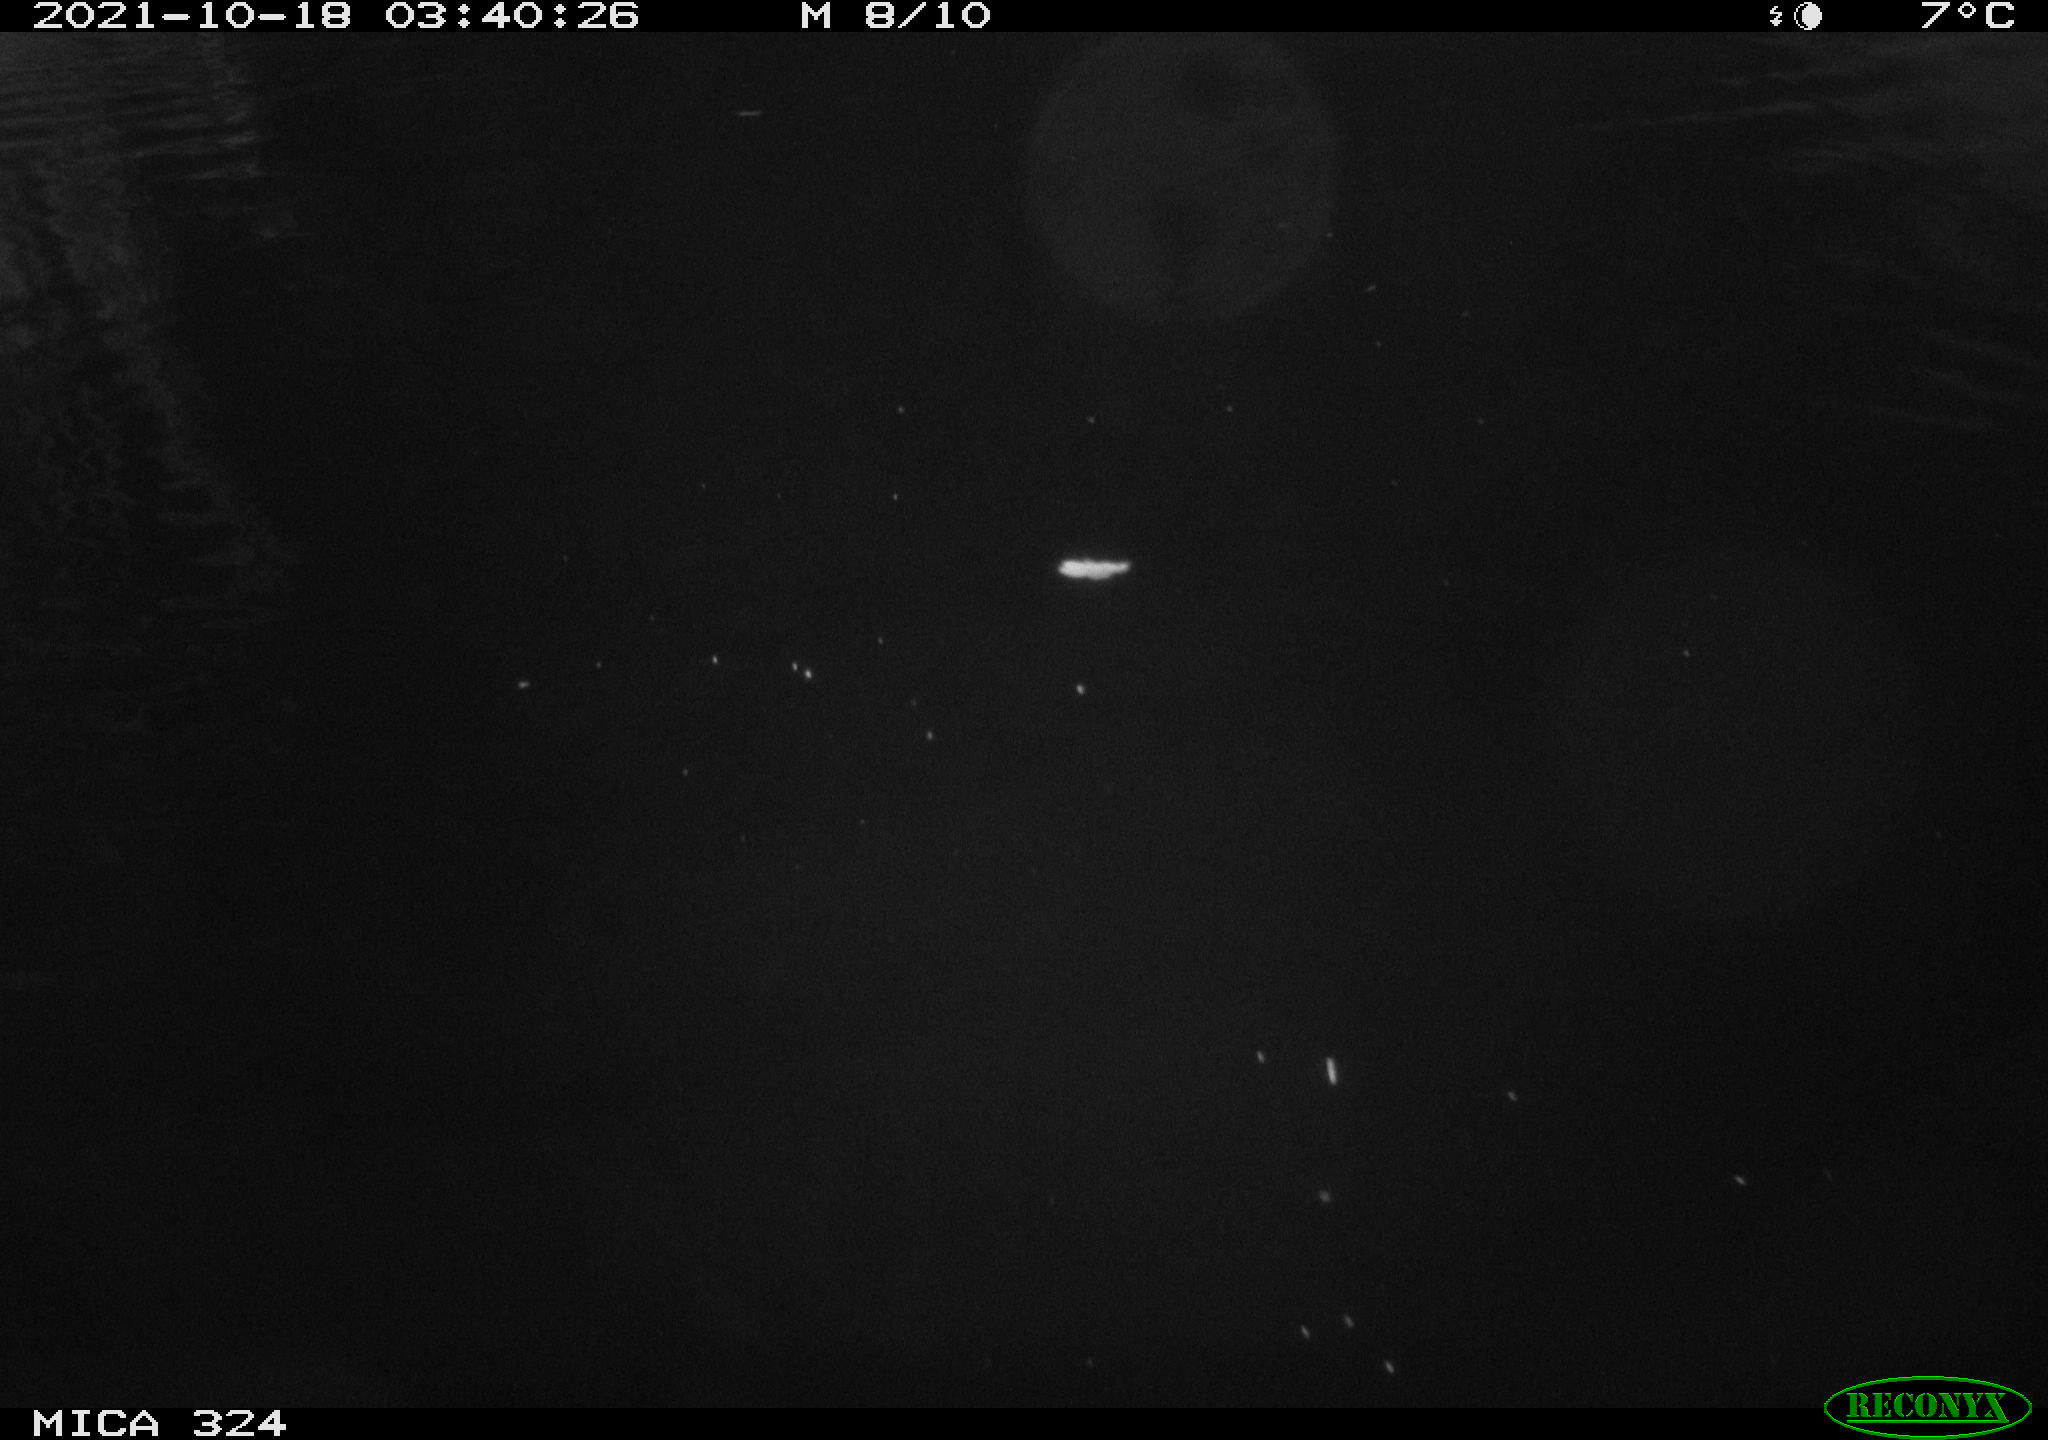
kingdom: Animalia
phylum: Chordata
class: Mammalia
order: Rodentia
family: Cricetidae
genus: Ondatra
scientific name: Ondatra zibethicus
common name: Muskrat
